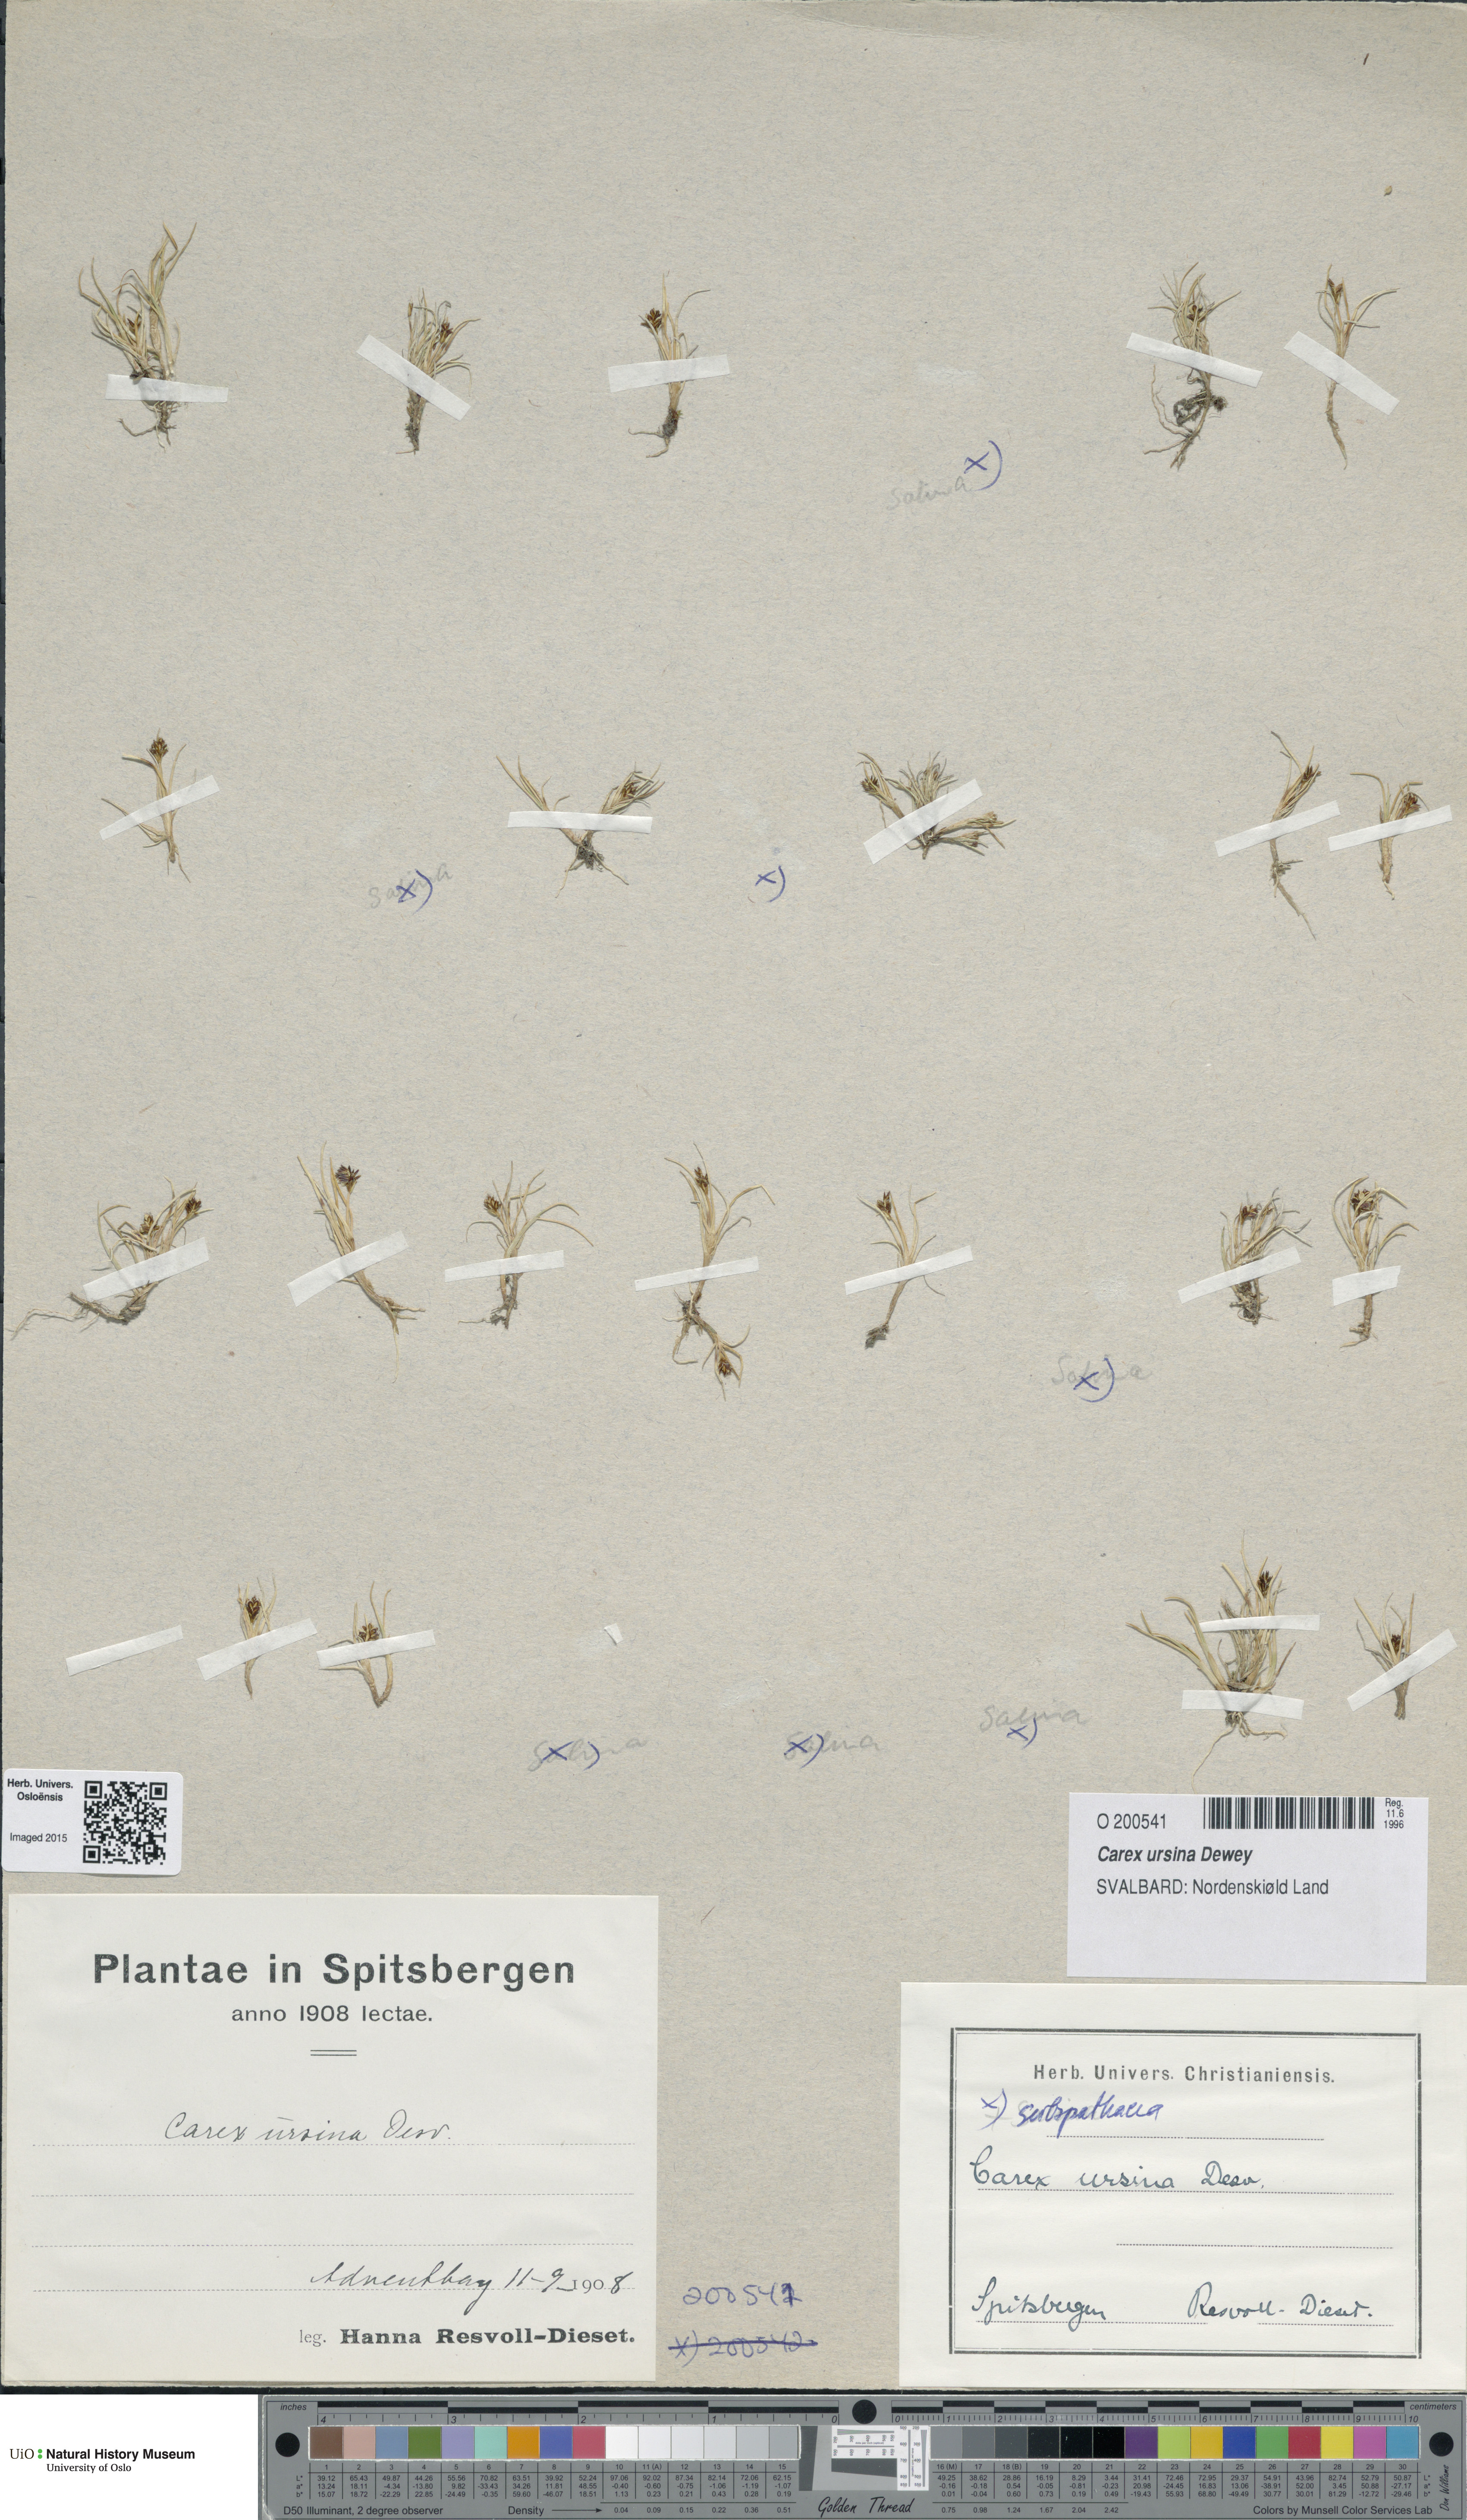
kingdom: Plantae
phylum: Tracheophyta
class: Liliopsida
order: Poales
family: Cyperaceae
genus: Carex
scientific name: Carex ursina
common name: Bear sedge
